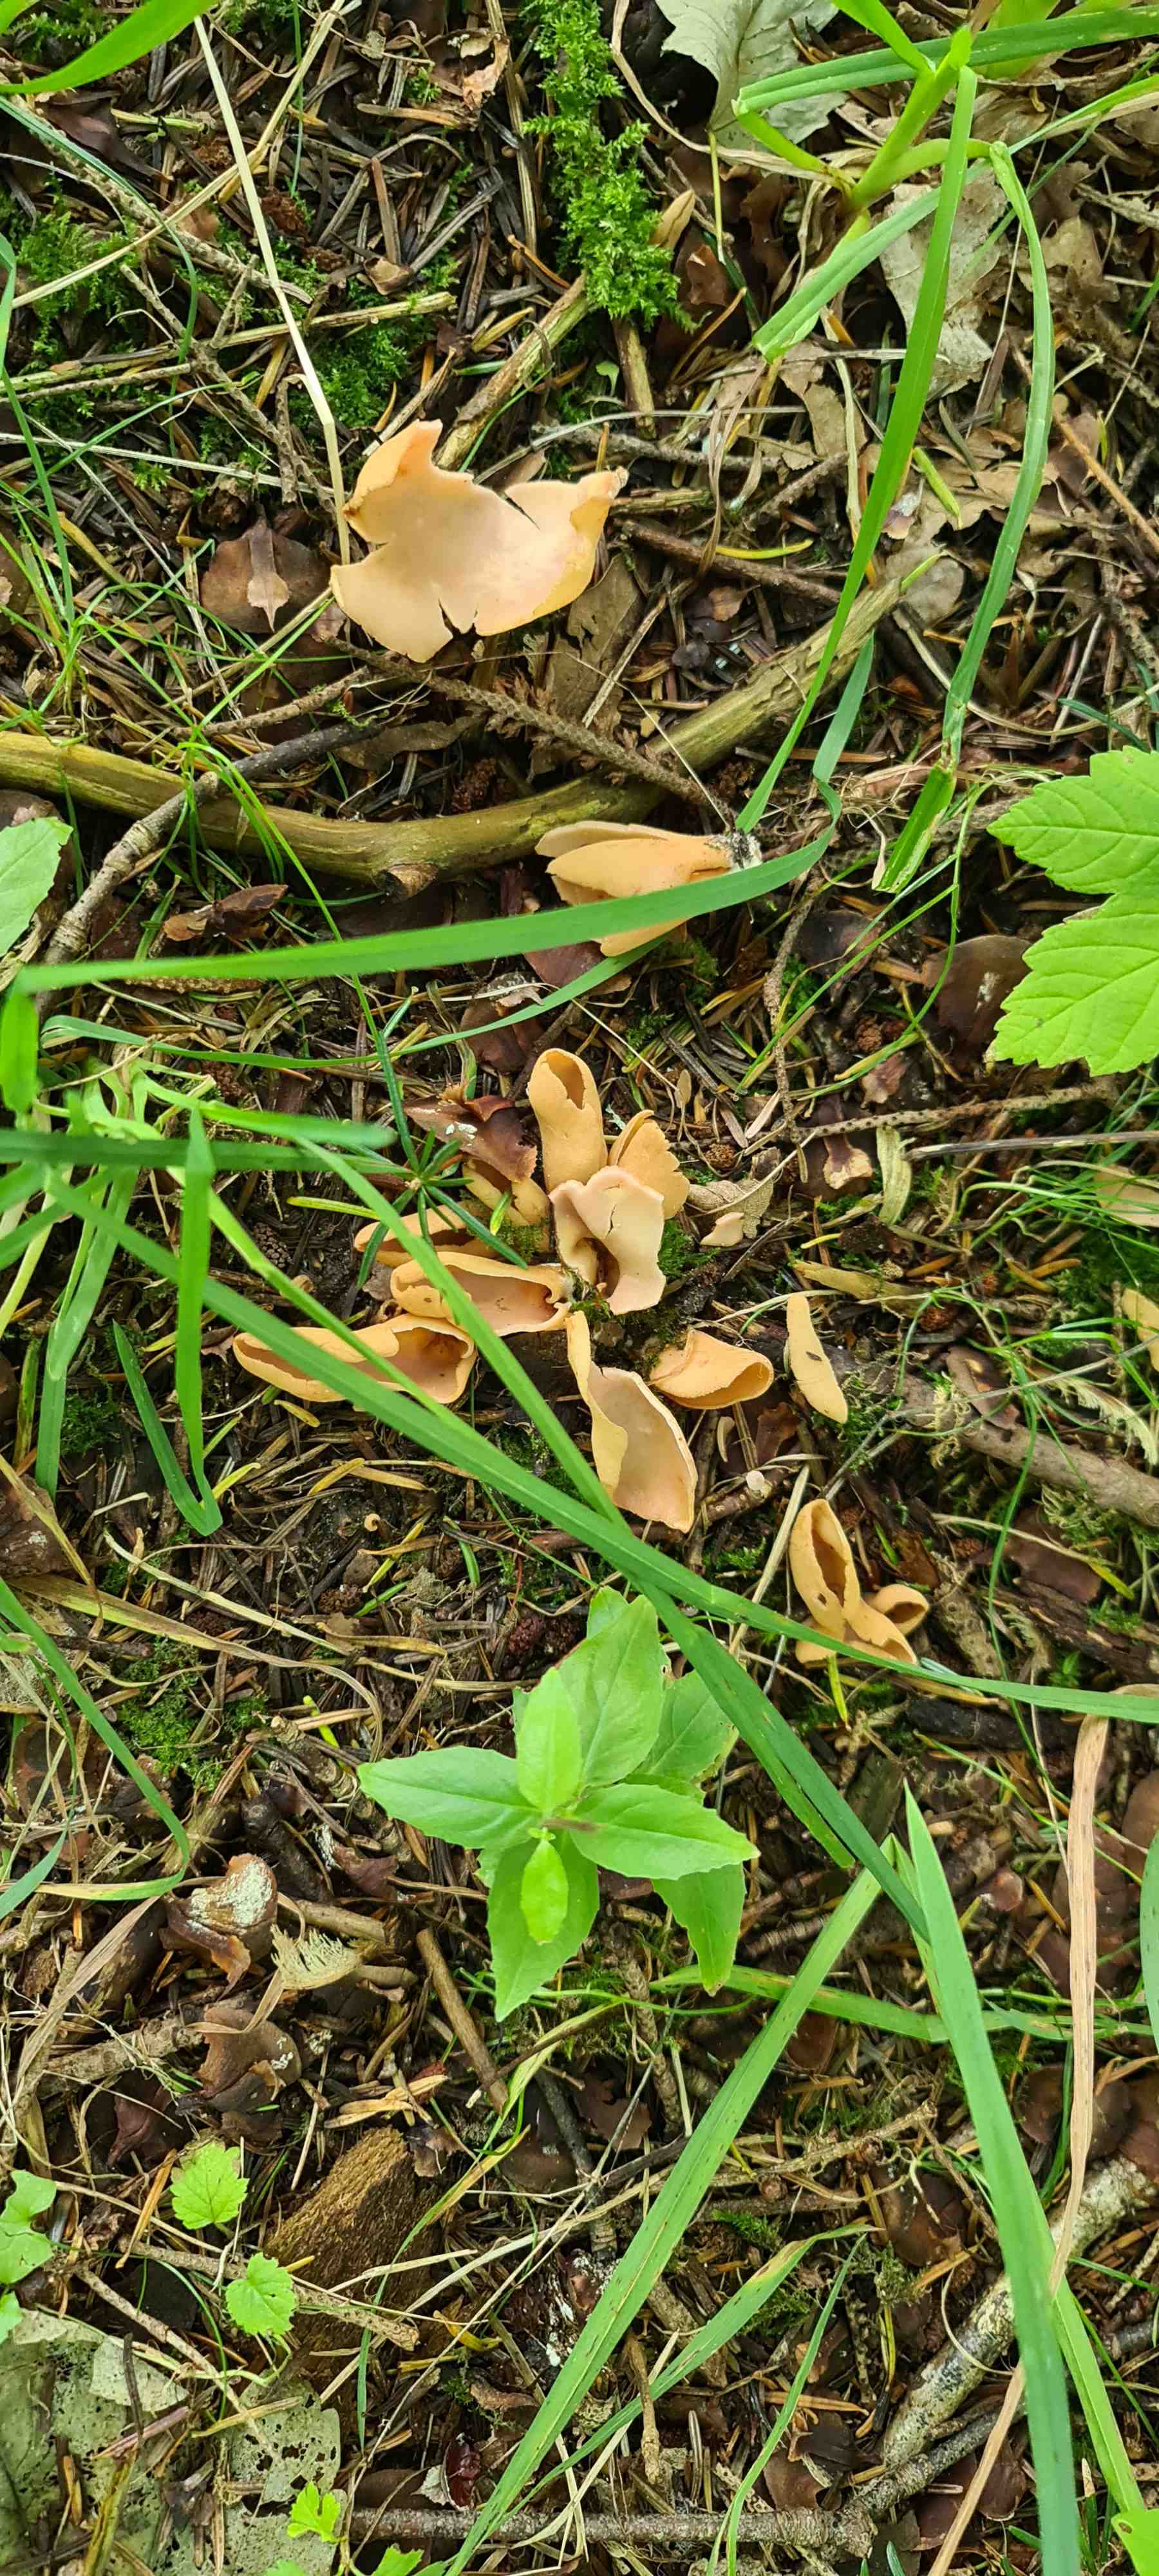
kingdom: Fungi
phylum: Ascomycota
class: Pezizomycetes
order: Pezizales
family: Otideaceae
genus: Otidea
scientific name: Otidea
